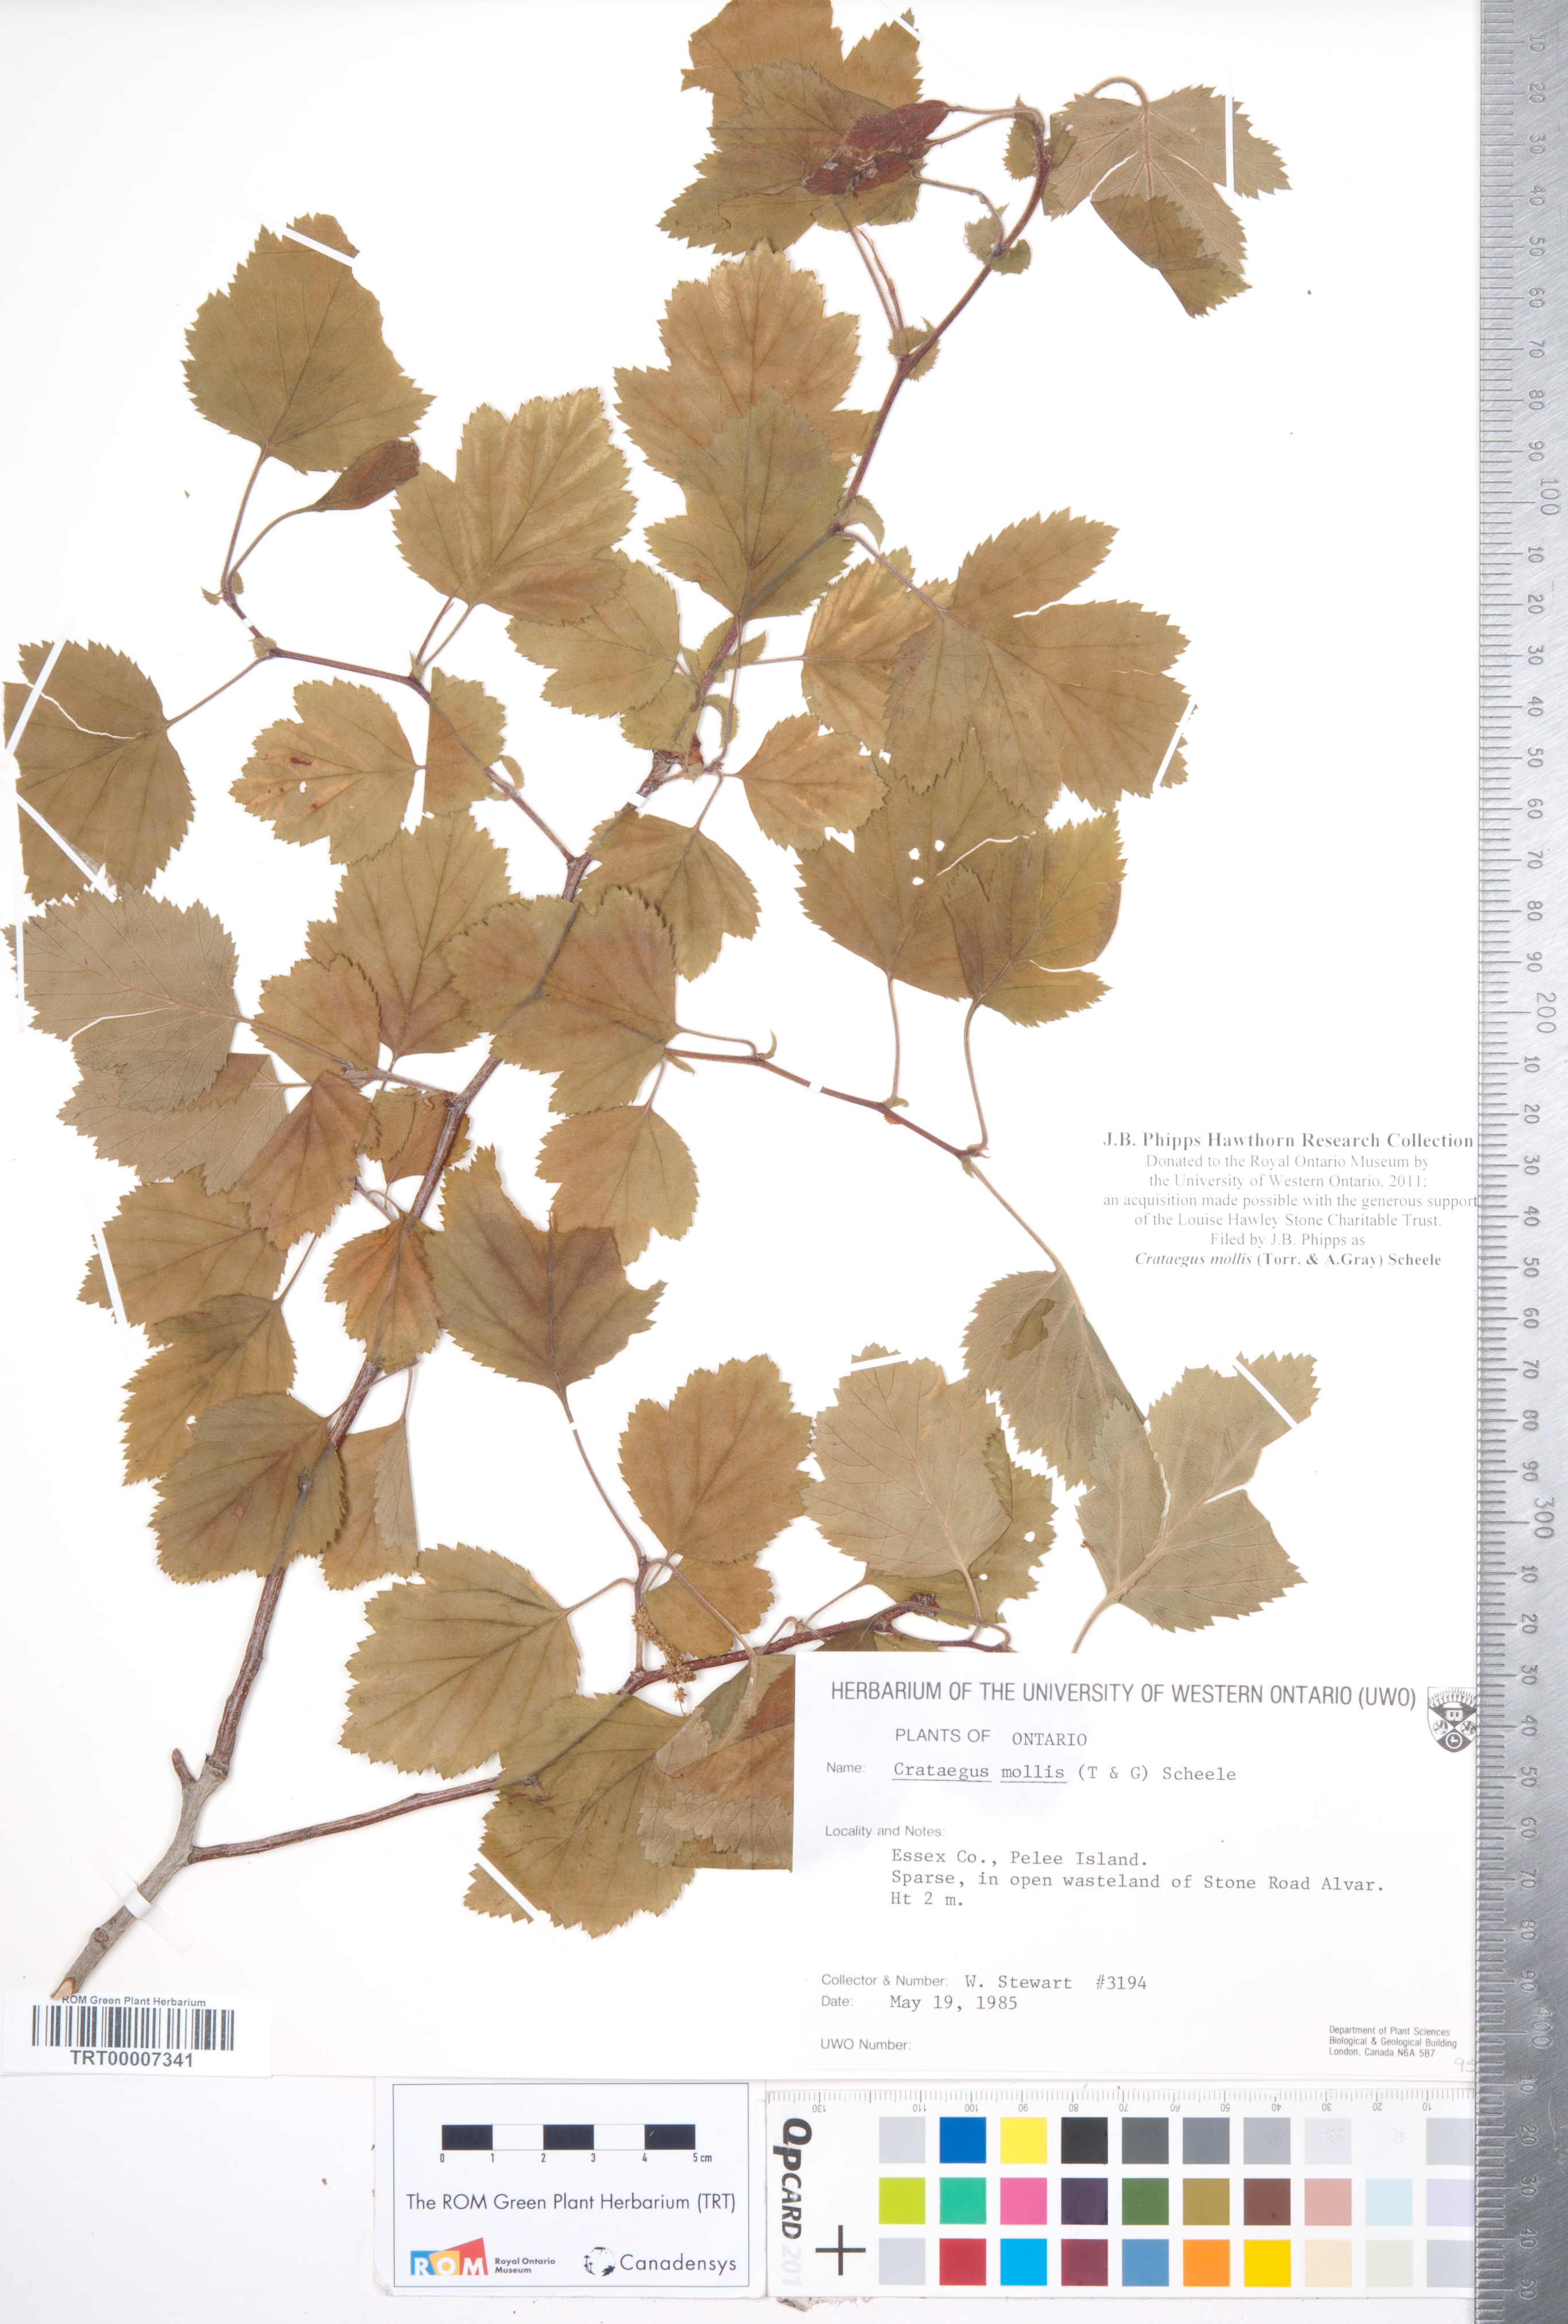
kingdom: Plantae
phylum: Tracheophyta
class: Magnoliopsida
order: Rosales
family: Rosaceae
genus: Crataegus
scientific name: Crataegus mollis
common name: Downy hawthorn
